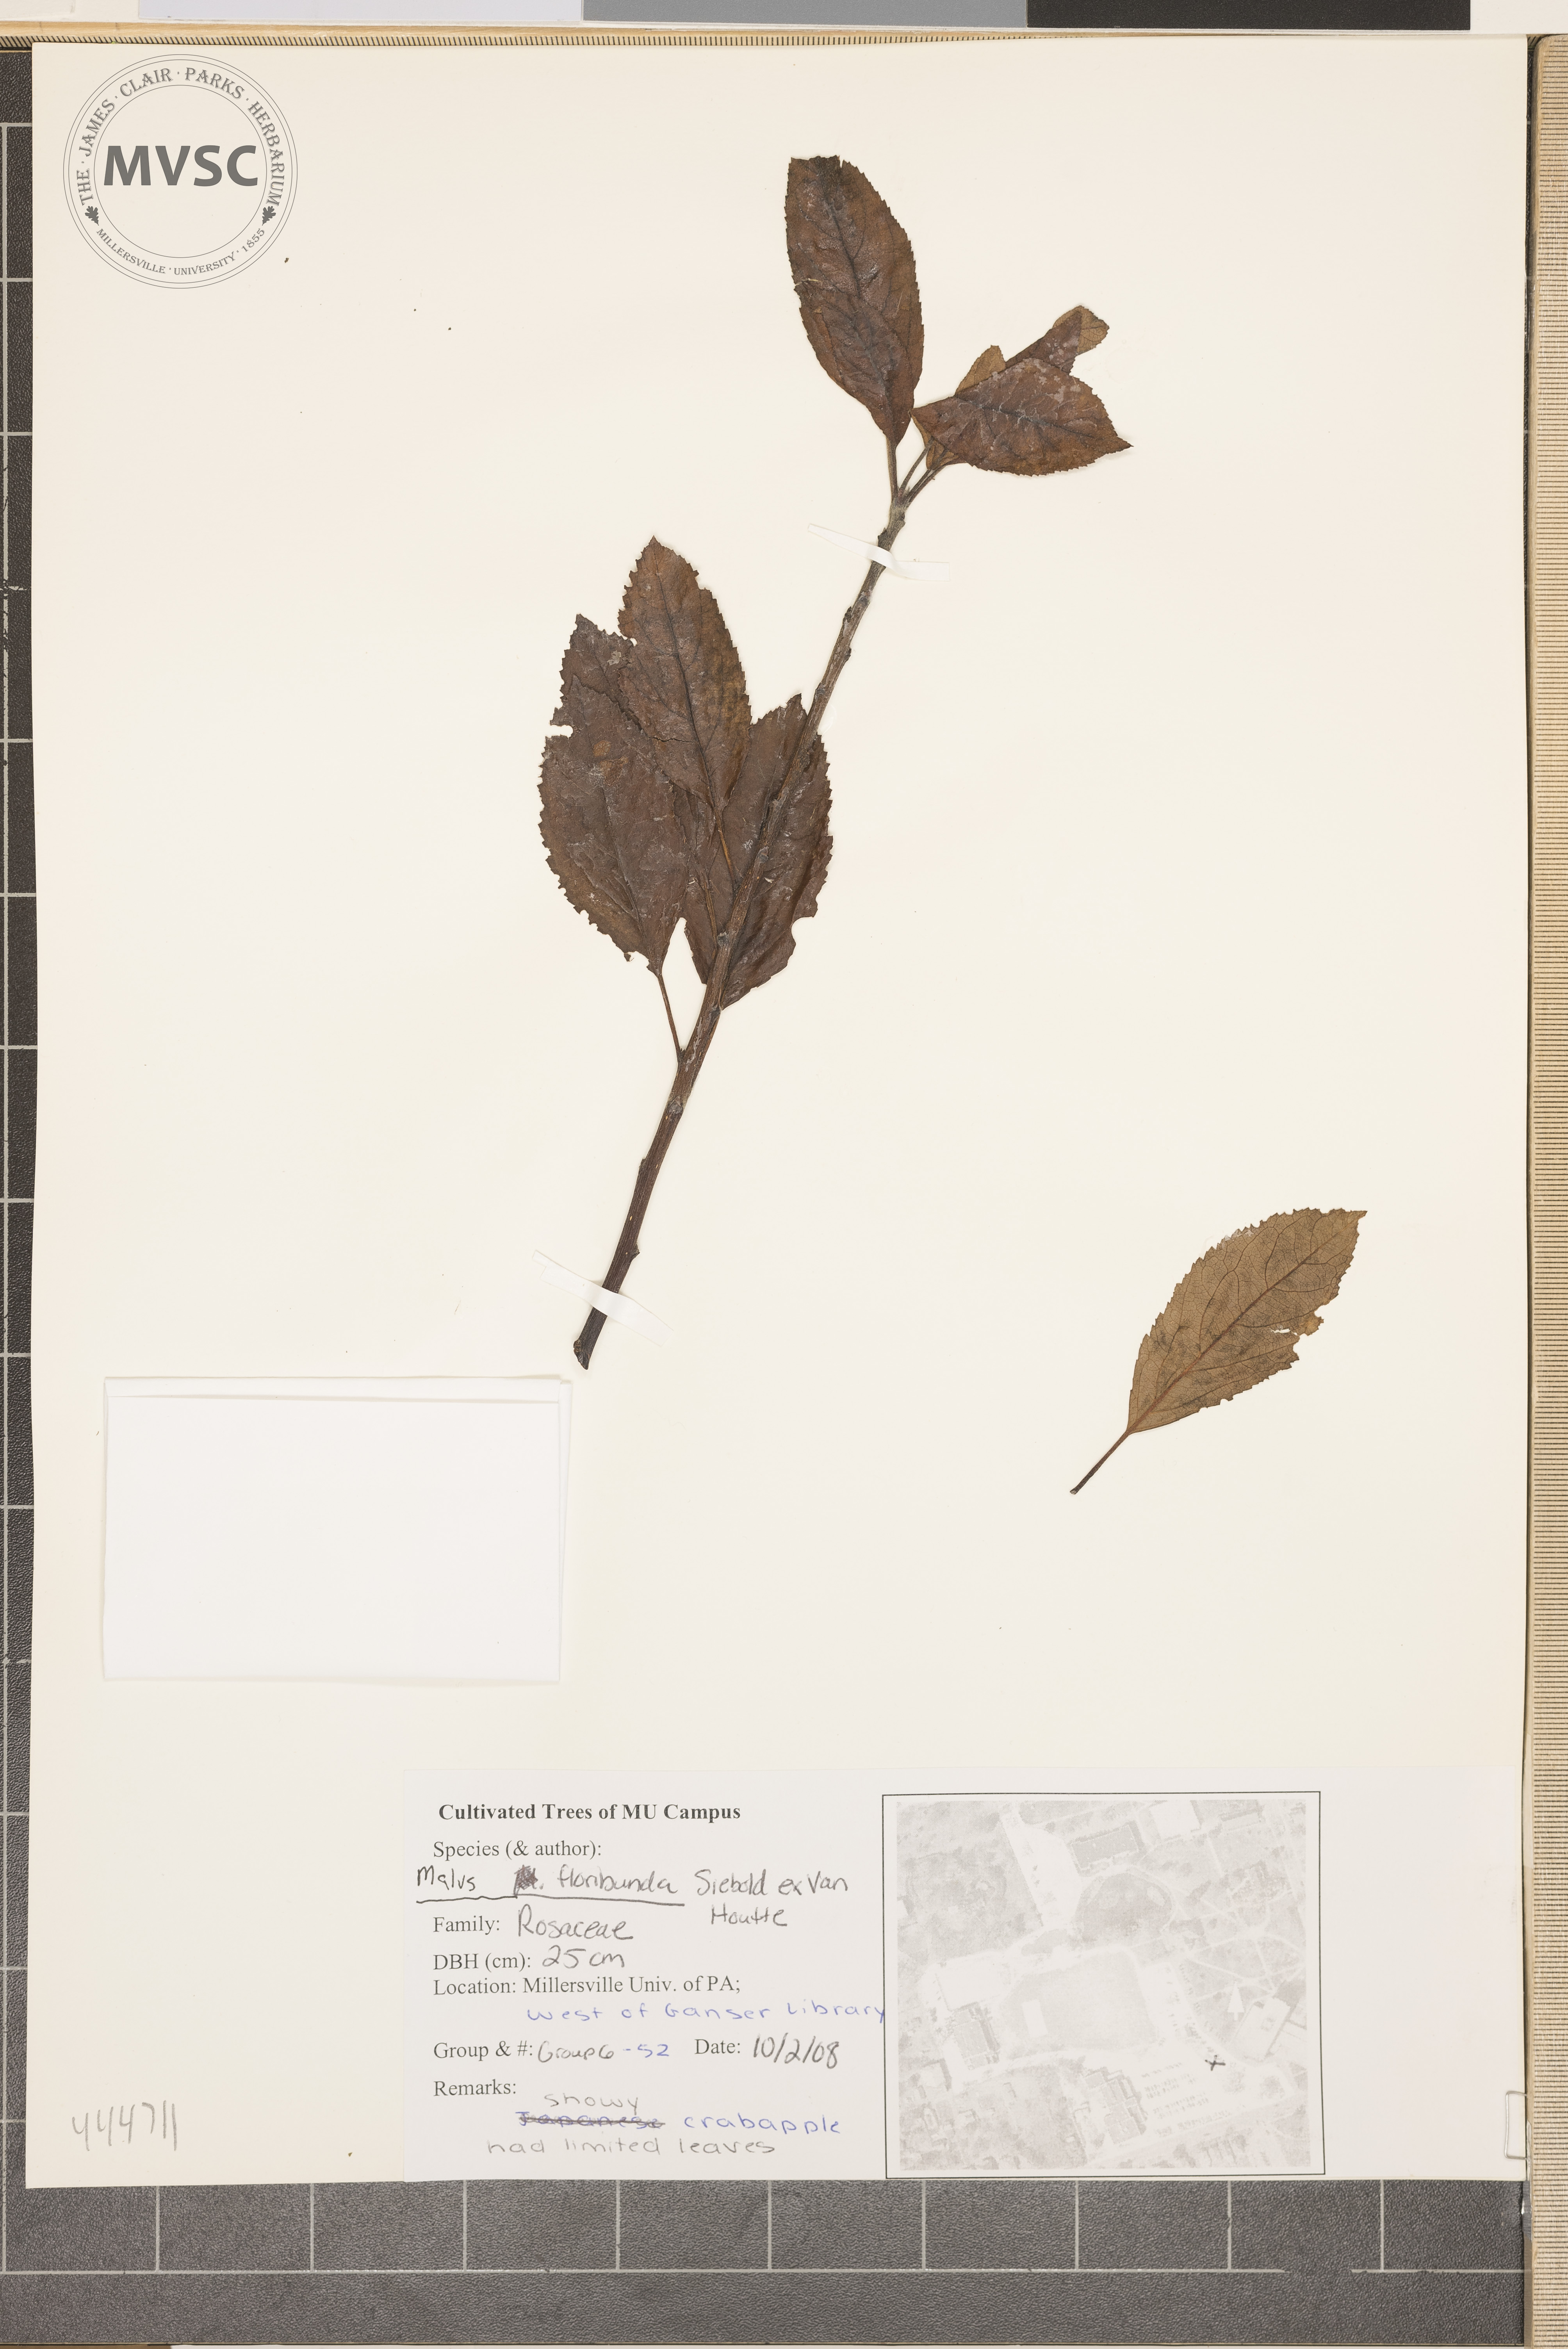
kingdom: Plantae
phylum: Tracheophyta
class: Magnoliopsida
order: Rosales
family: Rosaceae
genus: Malus
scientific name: Malus floribunda
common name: Japanese crab
